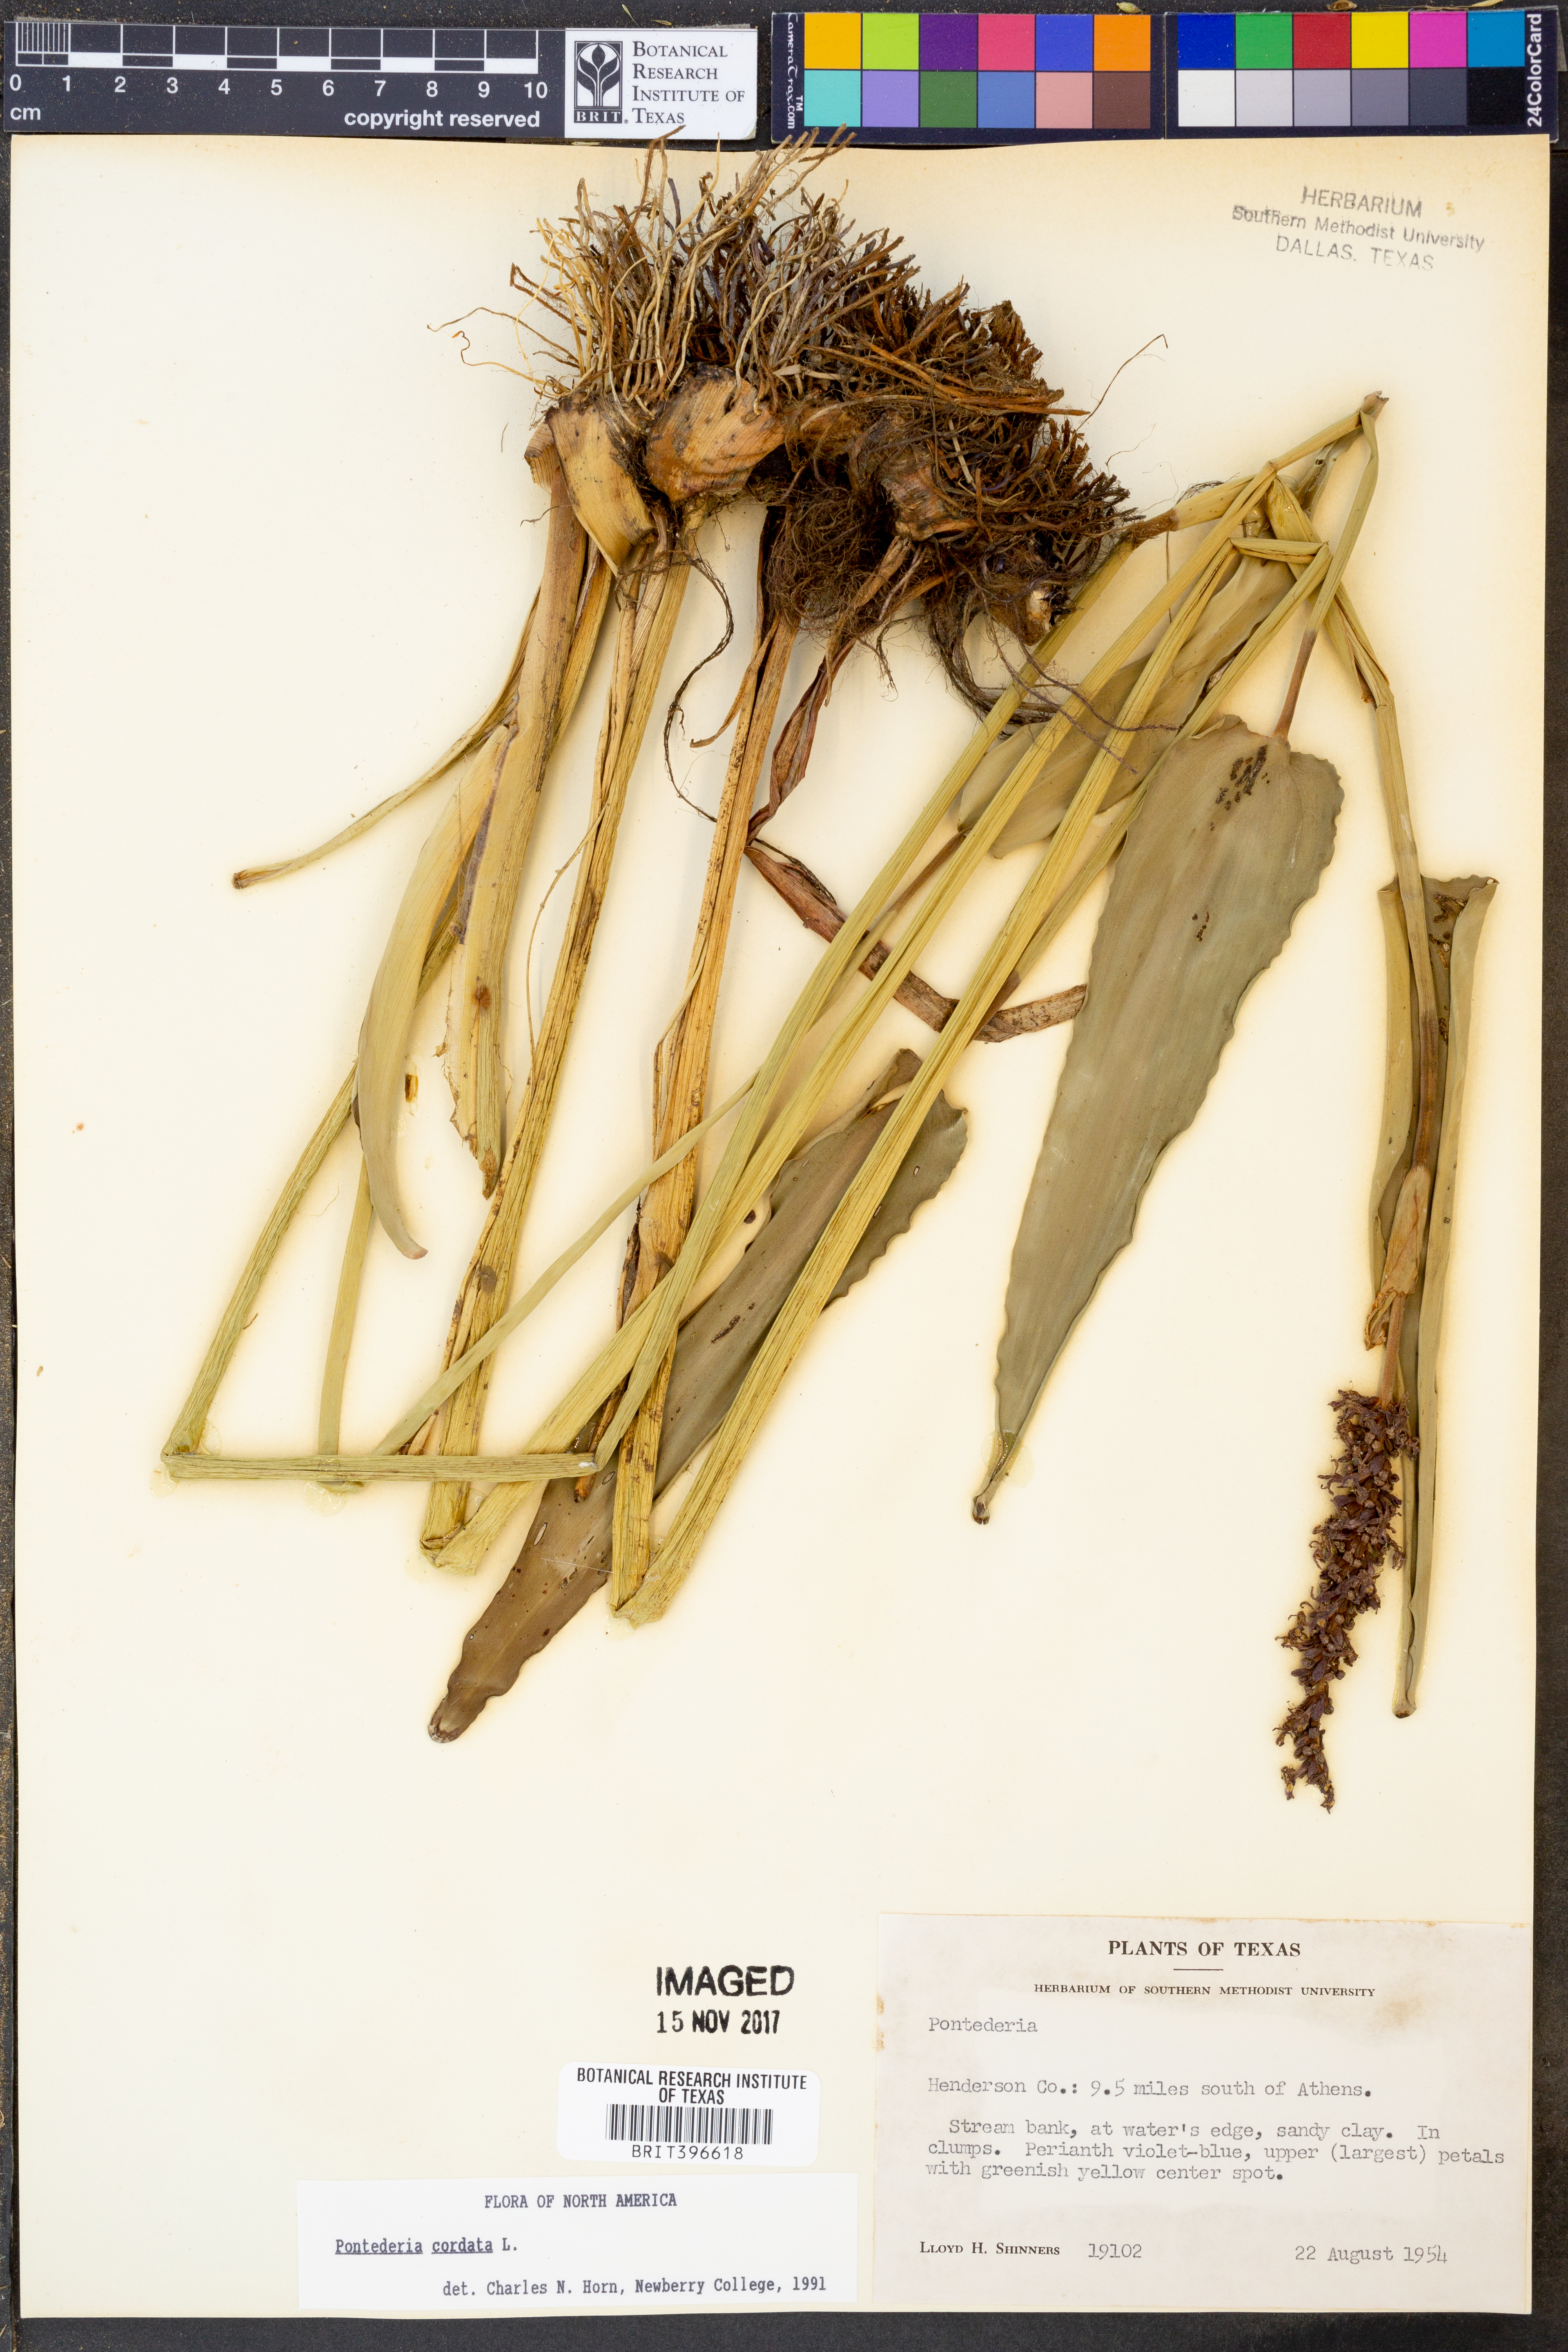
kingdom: Plantae
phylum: Tracheophyta
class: Liliopsida
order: Commelinales
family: Pontederiaceae
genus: Pontederia
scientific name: Pontederia cordata
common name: Pickerelweed
